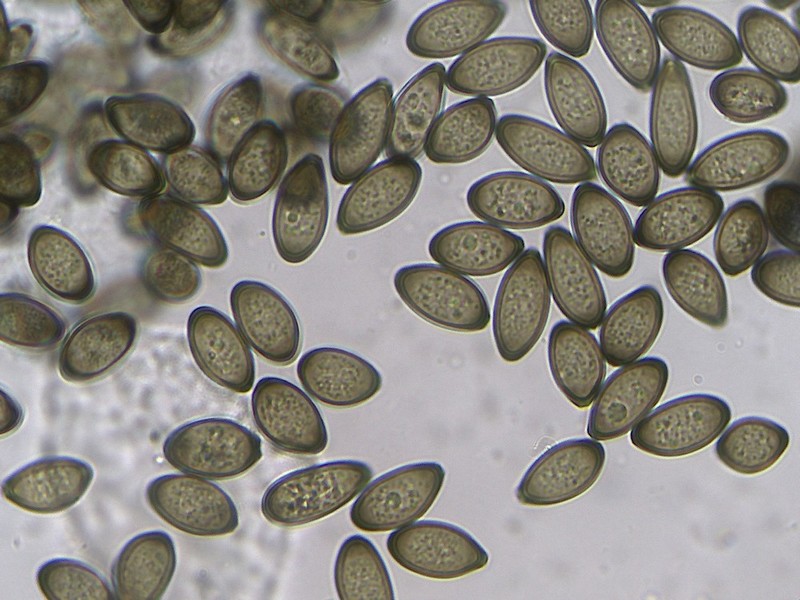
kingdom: Fungi
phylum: Ascomycota
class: Sordariomycetes
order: Diaporthales
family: Melanconidaceae
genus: Melanconis
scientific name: Melanconis stilbostoma
